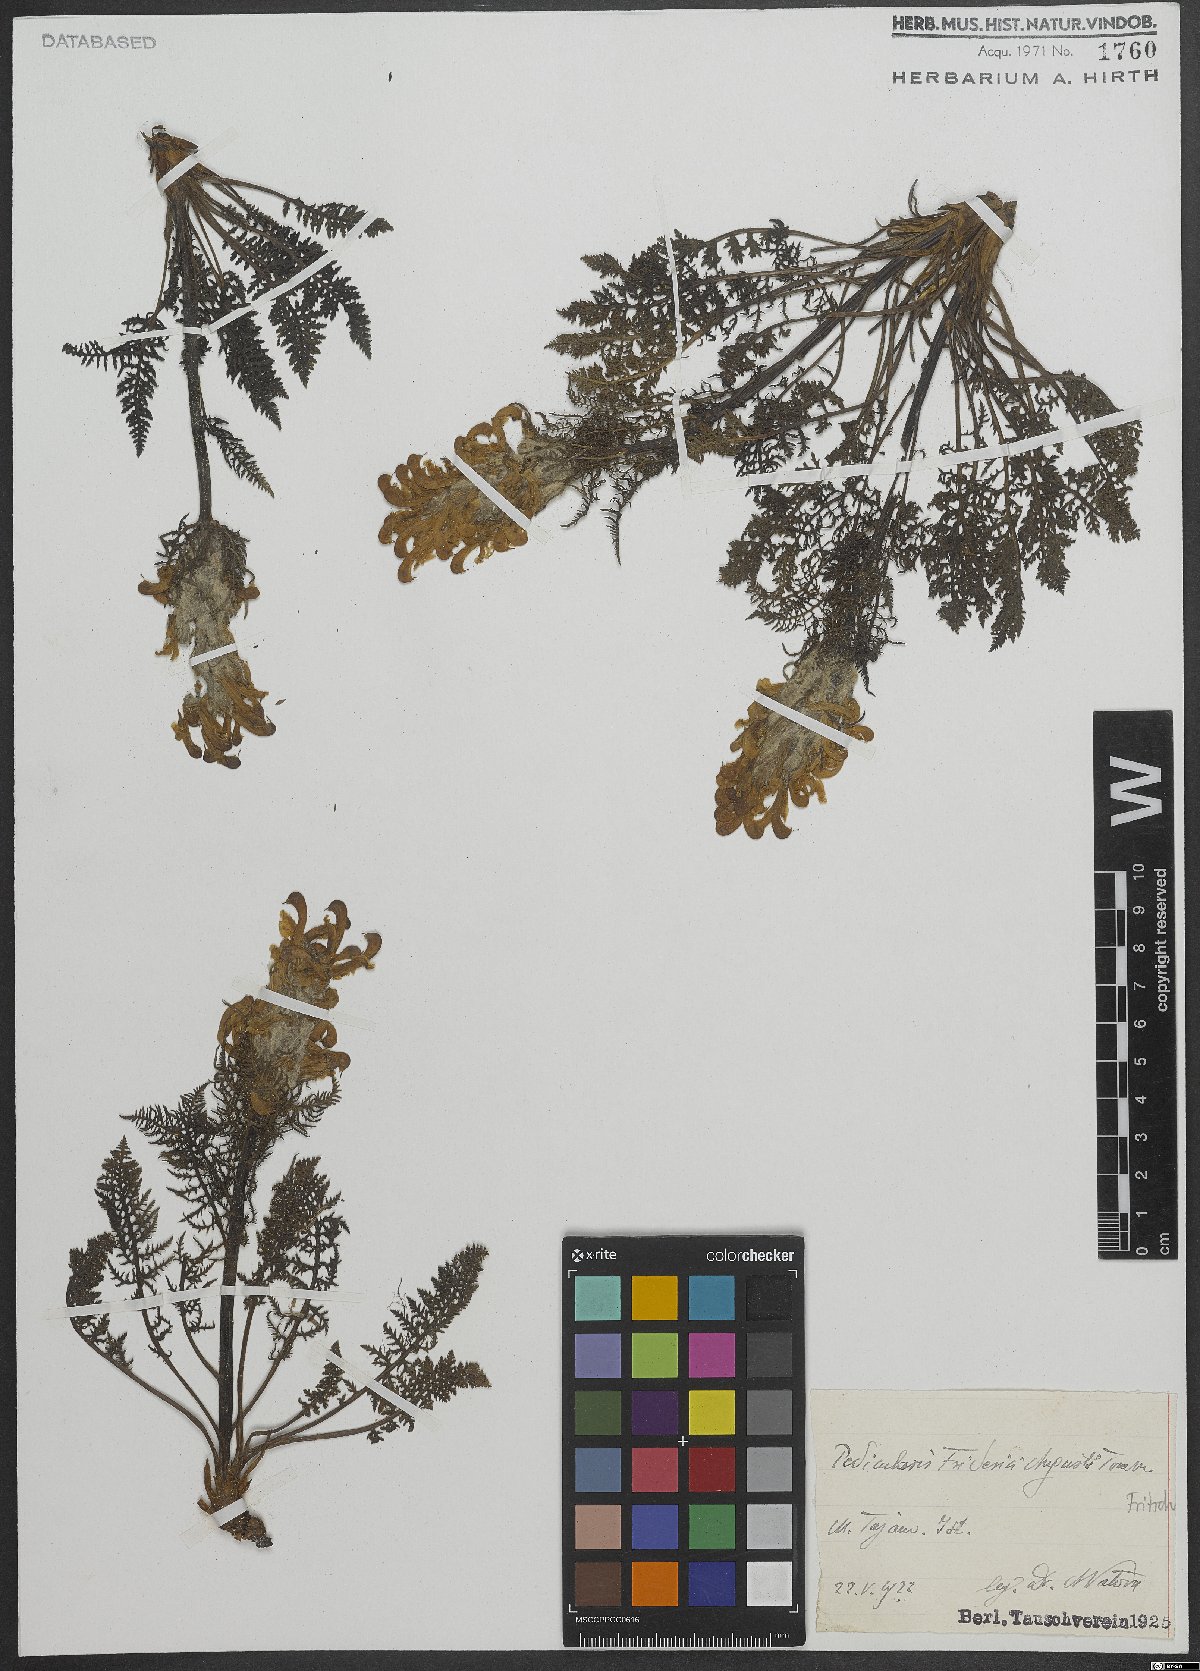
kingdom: Plantae
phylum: Tracheophyta
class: Magnoliopsida
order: Lamiales
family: Orobanchaceae
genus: Pedicularis
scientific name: Pedicularis friderici-augusti
